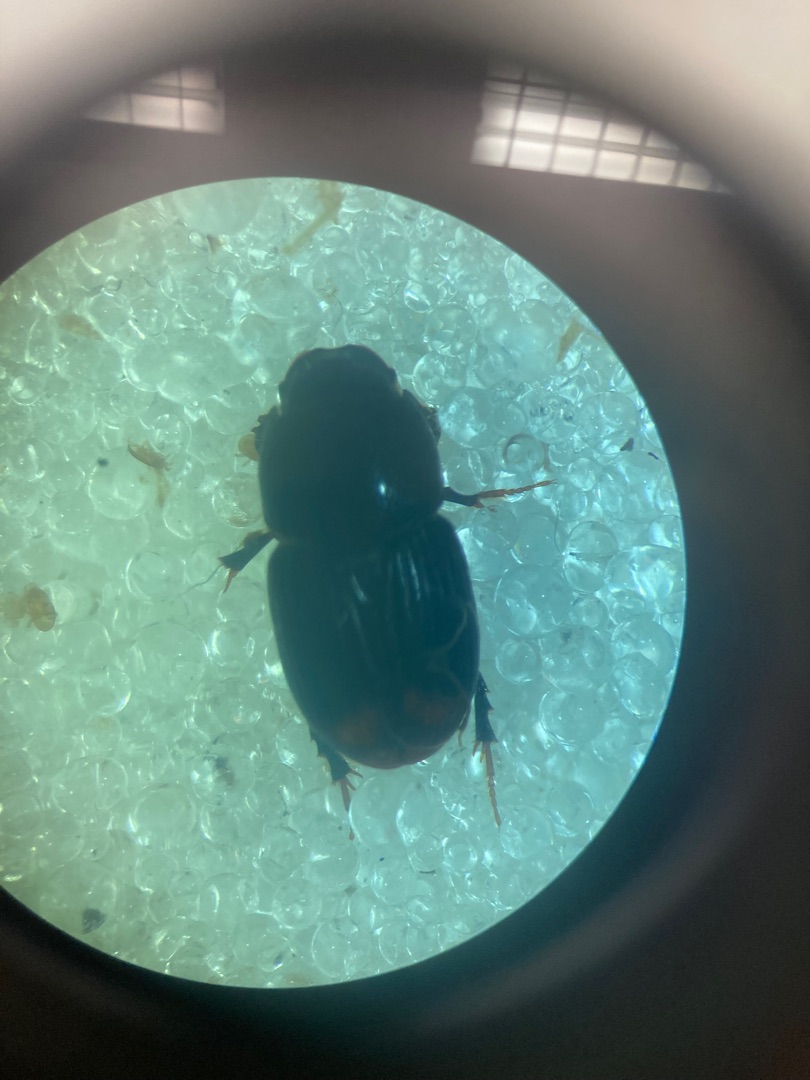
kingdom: Animalia
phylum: Arthropoda
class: Insecta
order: Coleoptera
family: Scarabaeidae
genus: Otophorus
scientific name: Otophorus haemorrhoidalis
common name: Rødhalet møgbille
